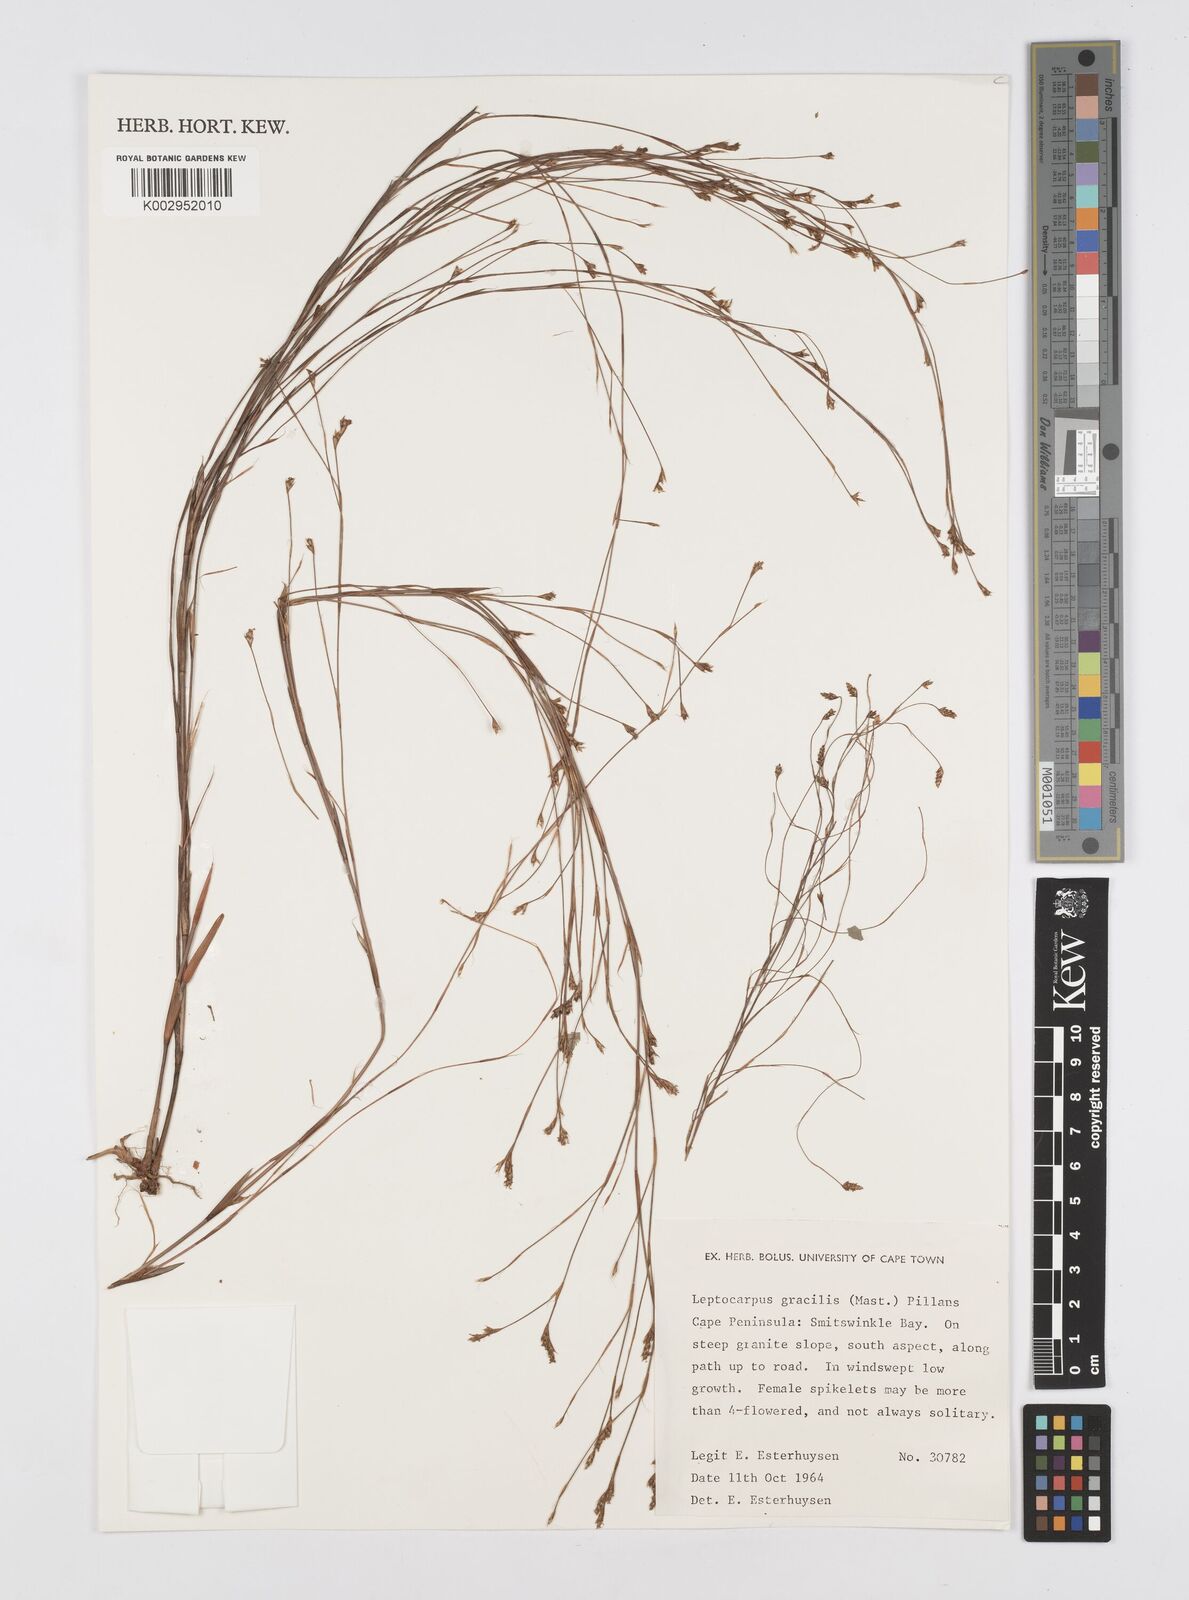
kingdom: Plantae
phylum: Tracheophyta
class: Liliopsida
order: Poales
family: Restionaceae
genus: Baloskion
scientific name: Baloskion gracile
